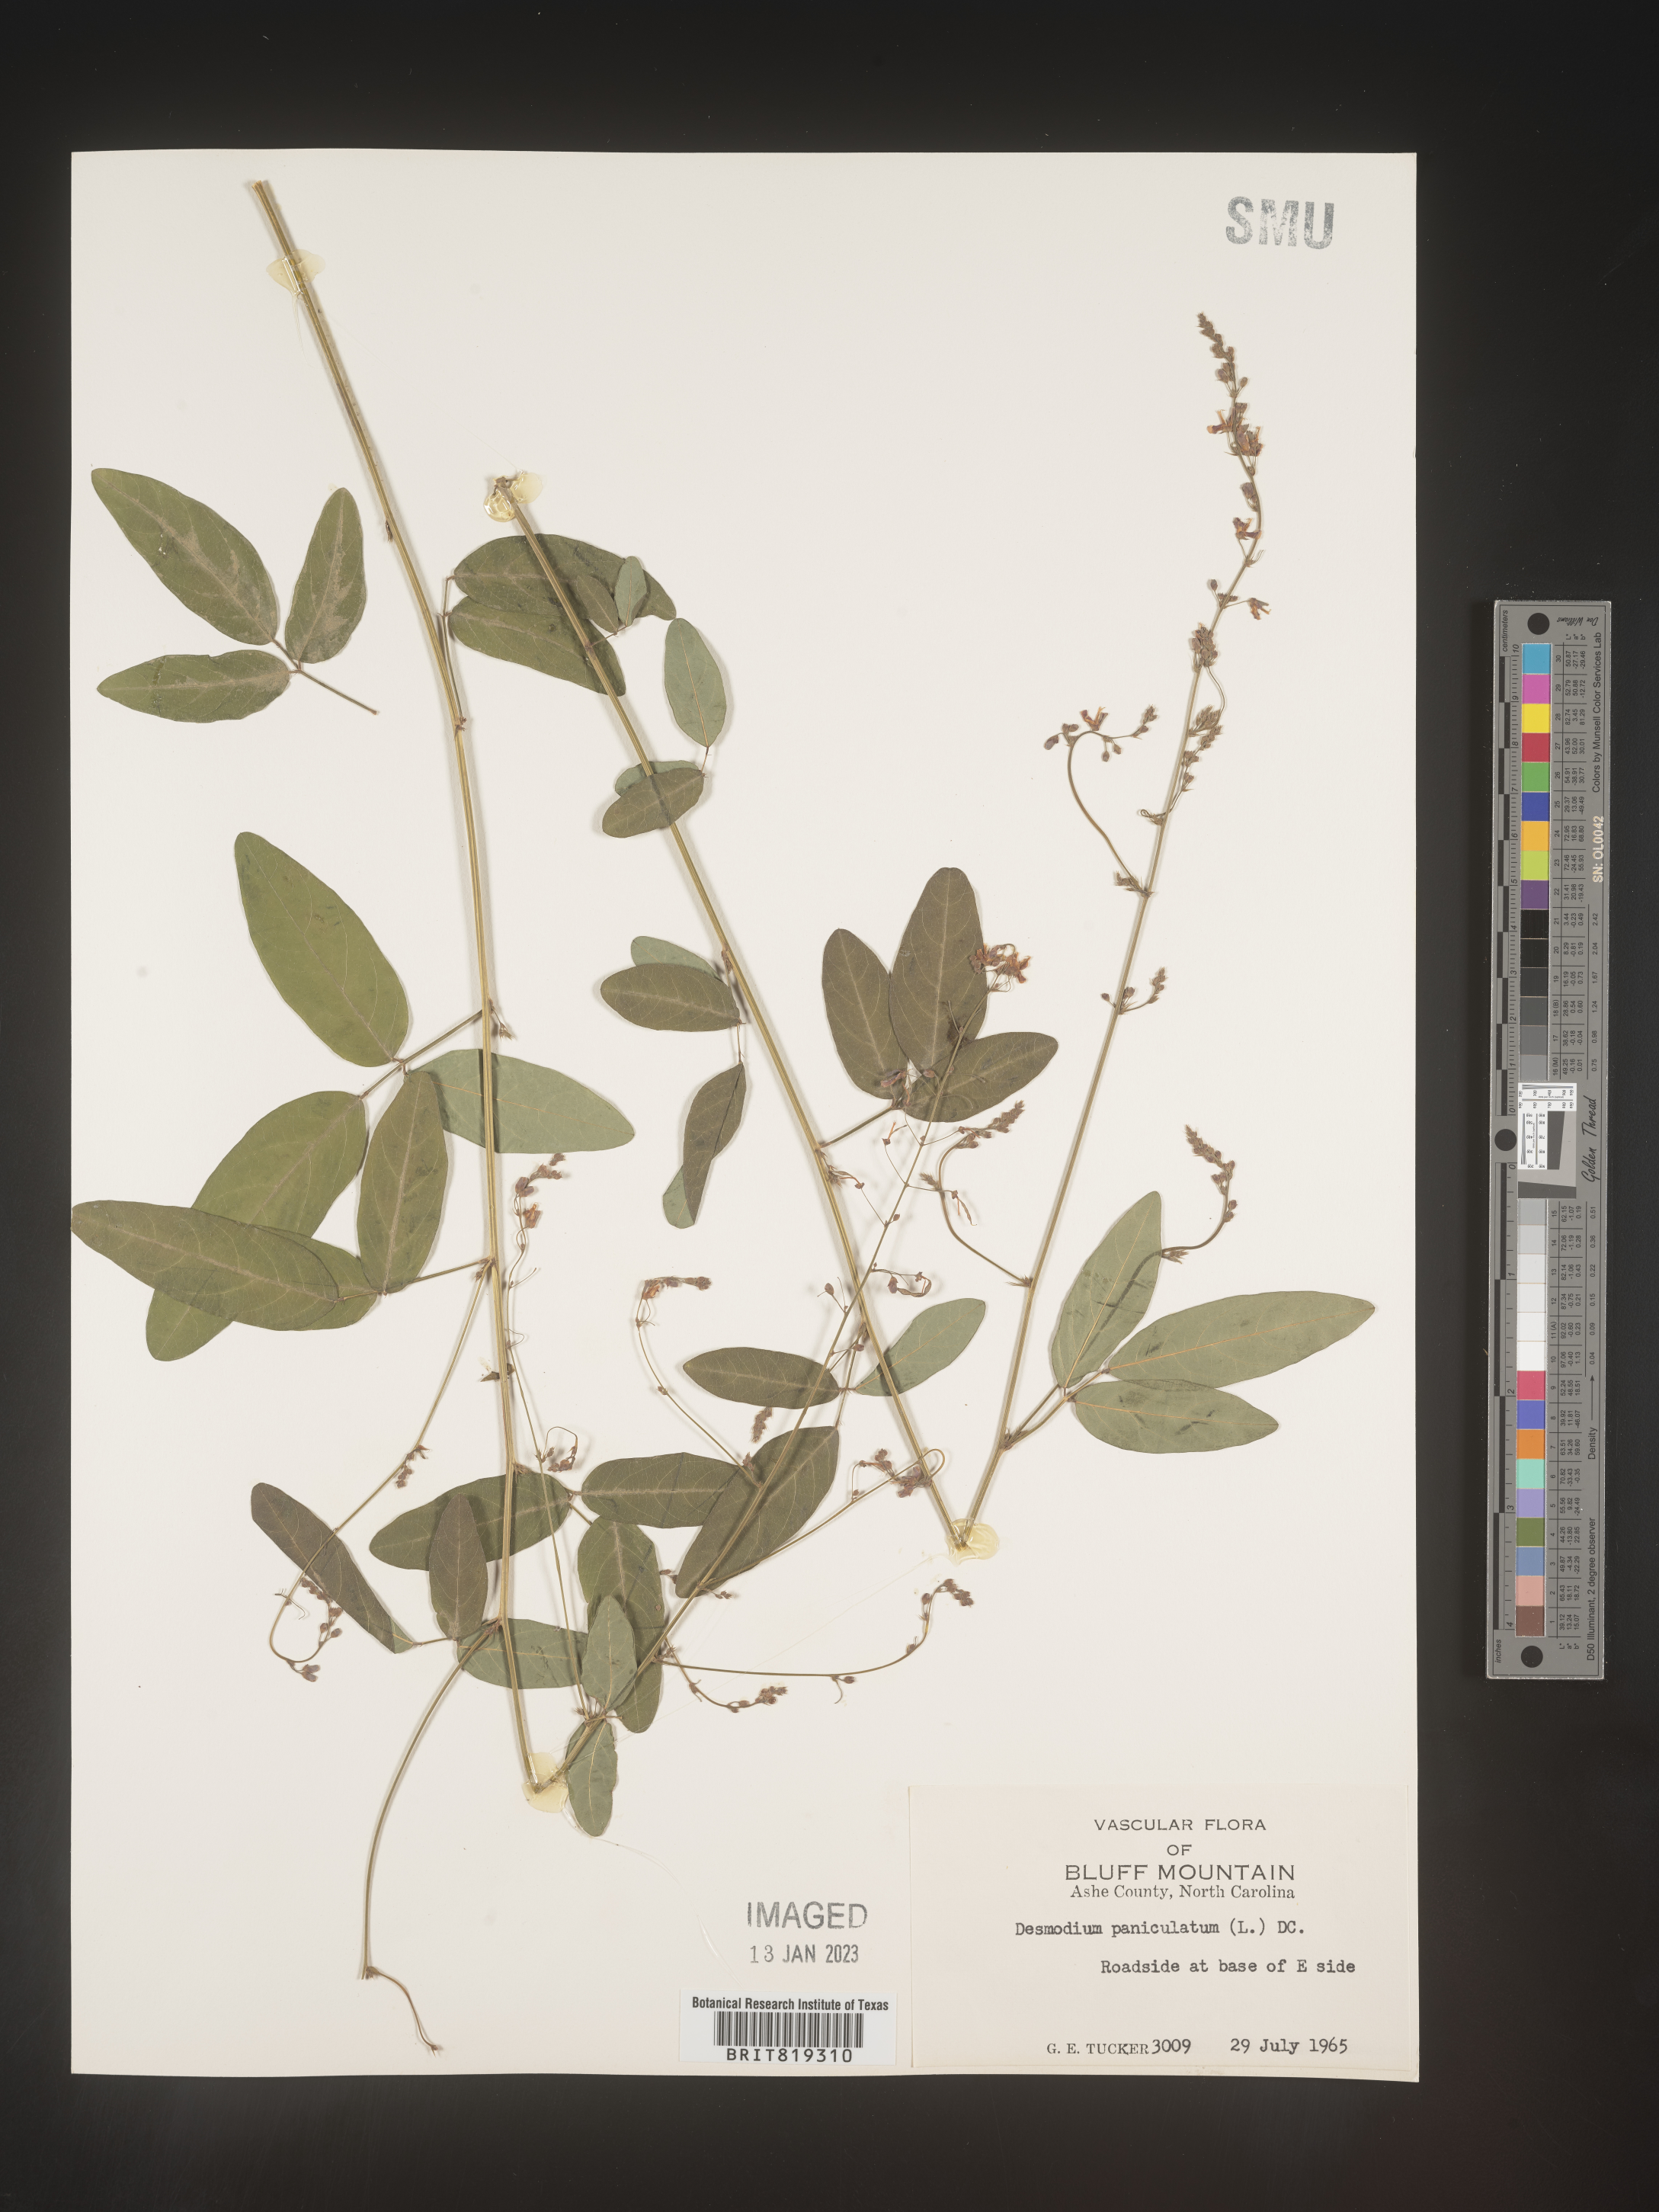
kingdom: Plantae
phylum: Tracheophyta
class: Magnoliopsida
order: Fabales
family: Fabaceae
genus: Desmodium
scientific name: Desmodium paniculatum
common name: Panicled tick-clover
